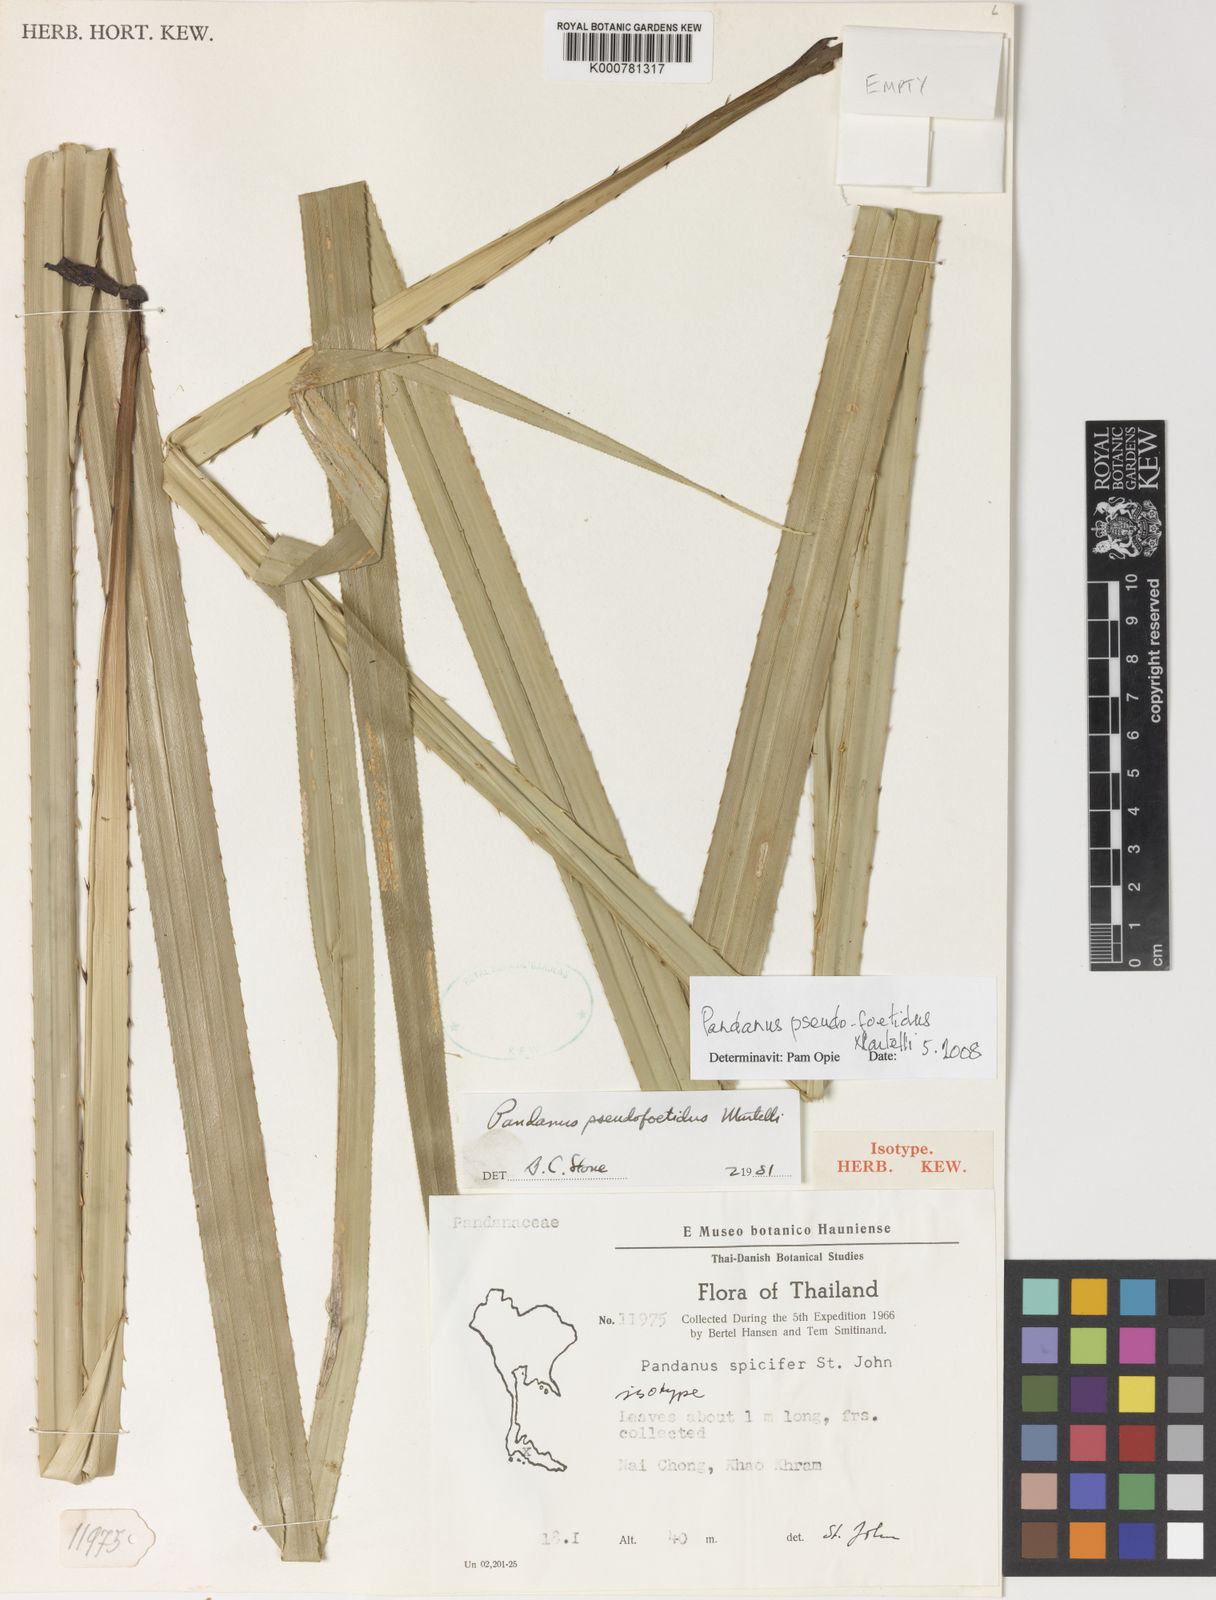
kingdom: Plantae
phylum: Tracheophyta
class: Liliopsida
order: Pandanales
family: Pandanaceae
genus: Benstonea
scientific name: Benstonea humilis
